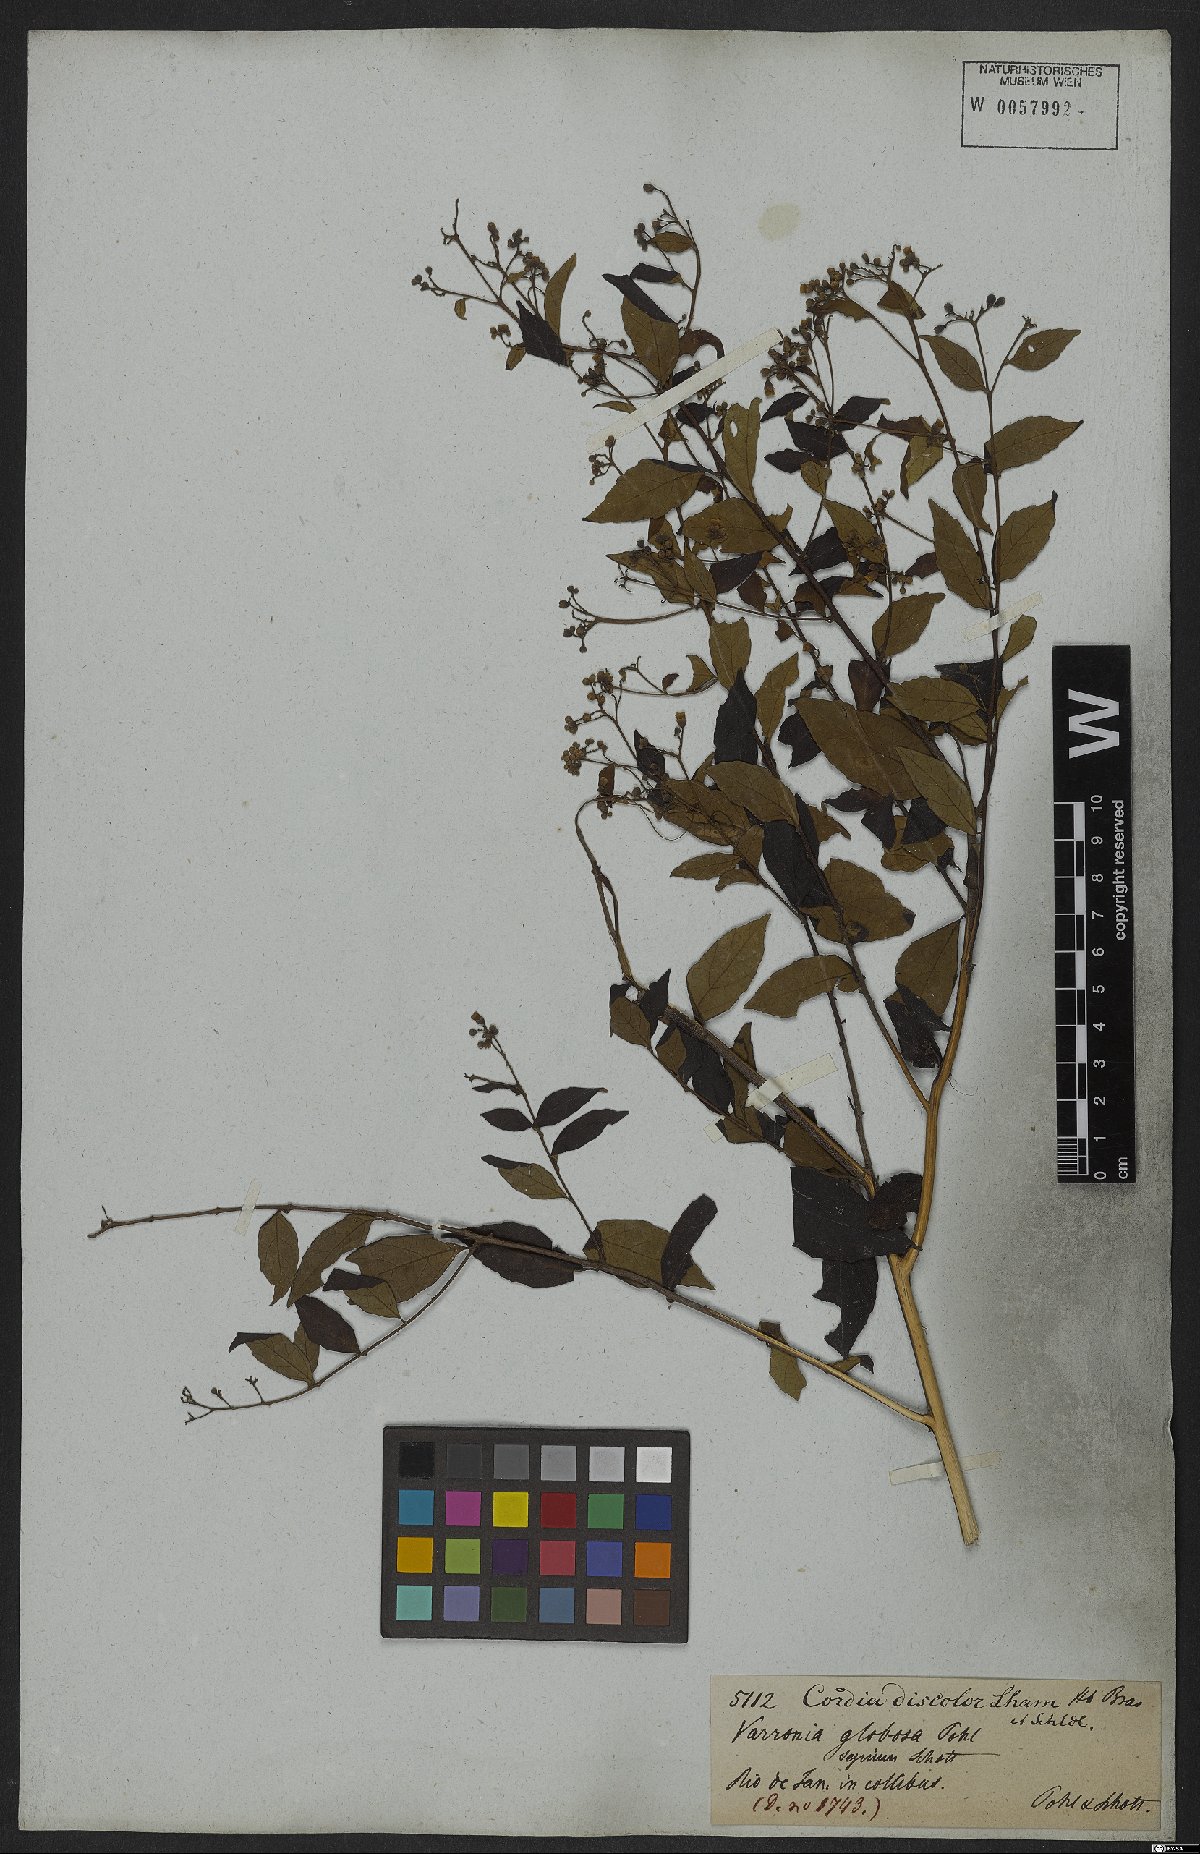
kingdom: Plantae
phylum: Tracheophyta
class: Magnoliopsida
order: Boraginales
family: Cordiaceae
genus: Varronia
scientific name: Varronia discolor
